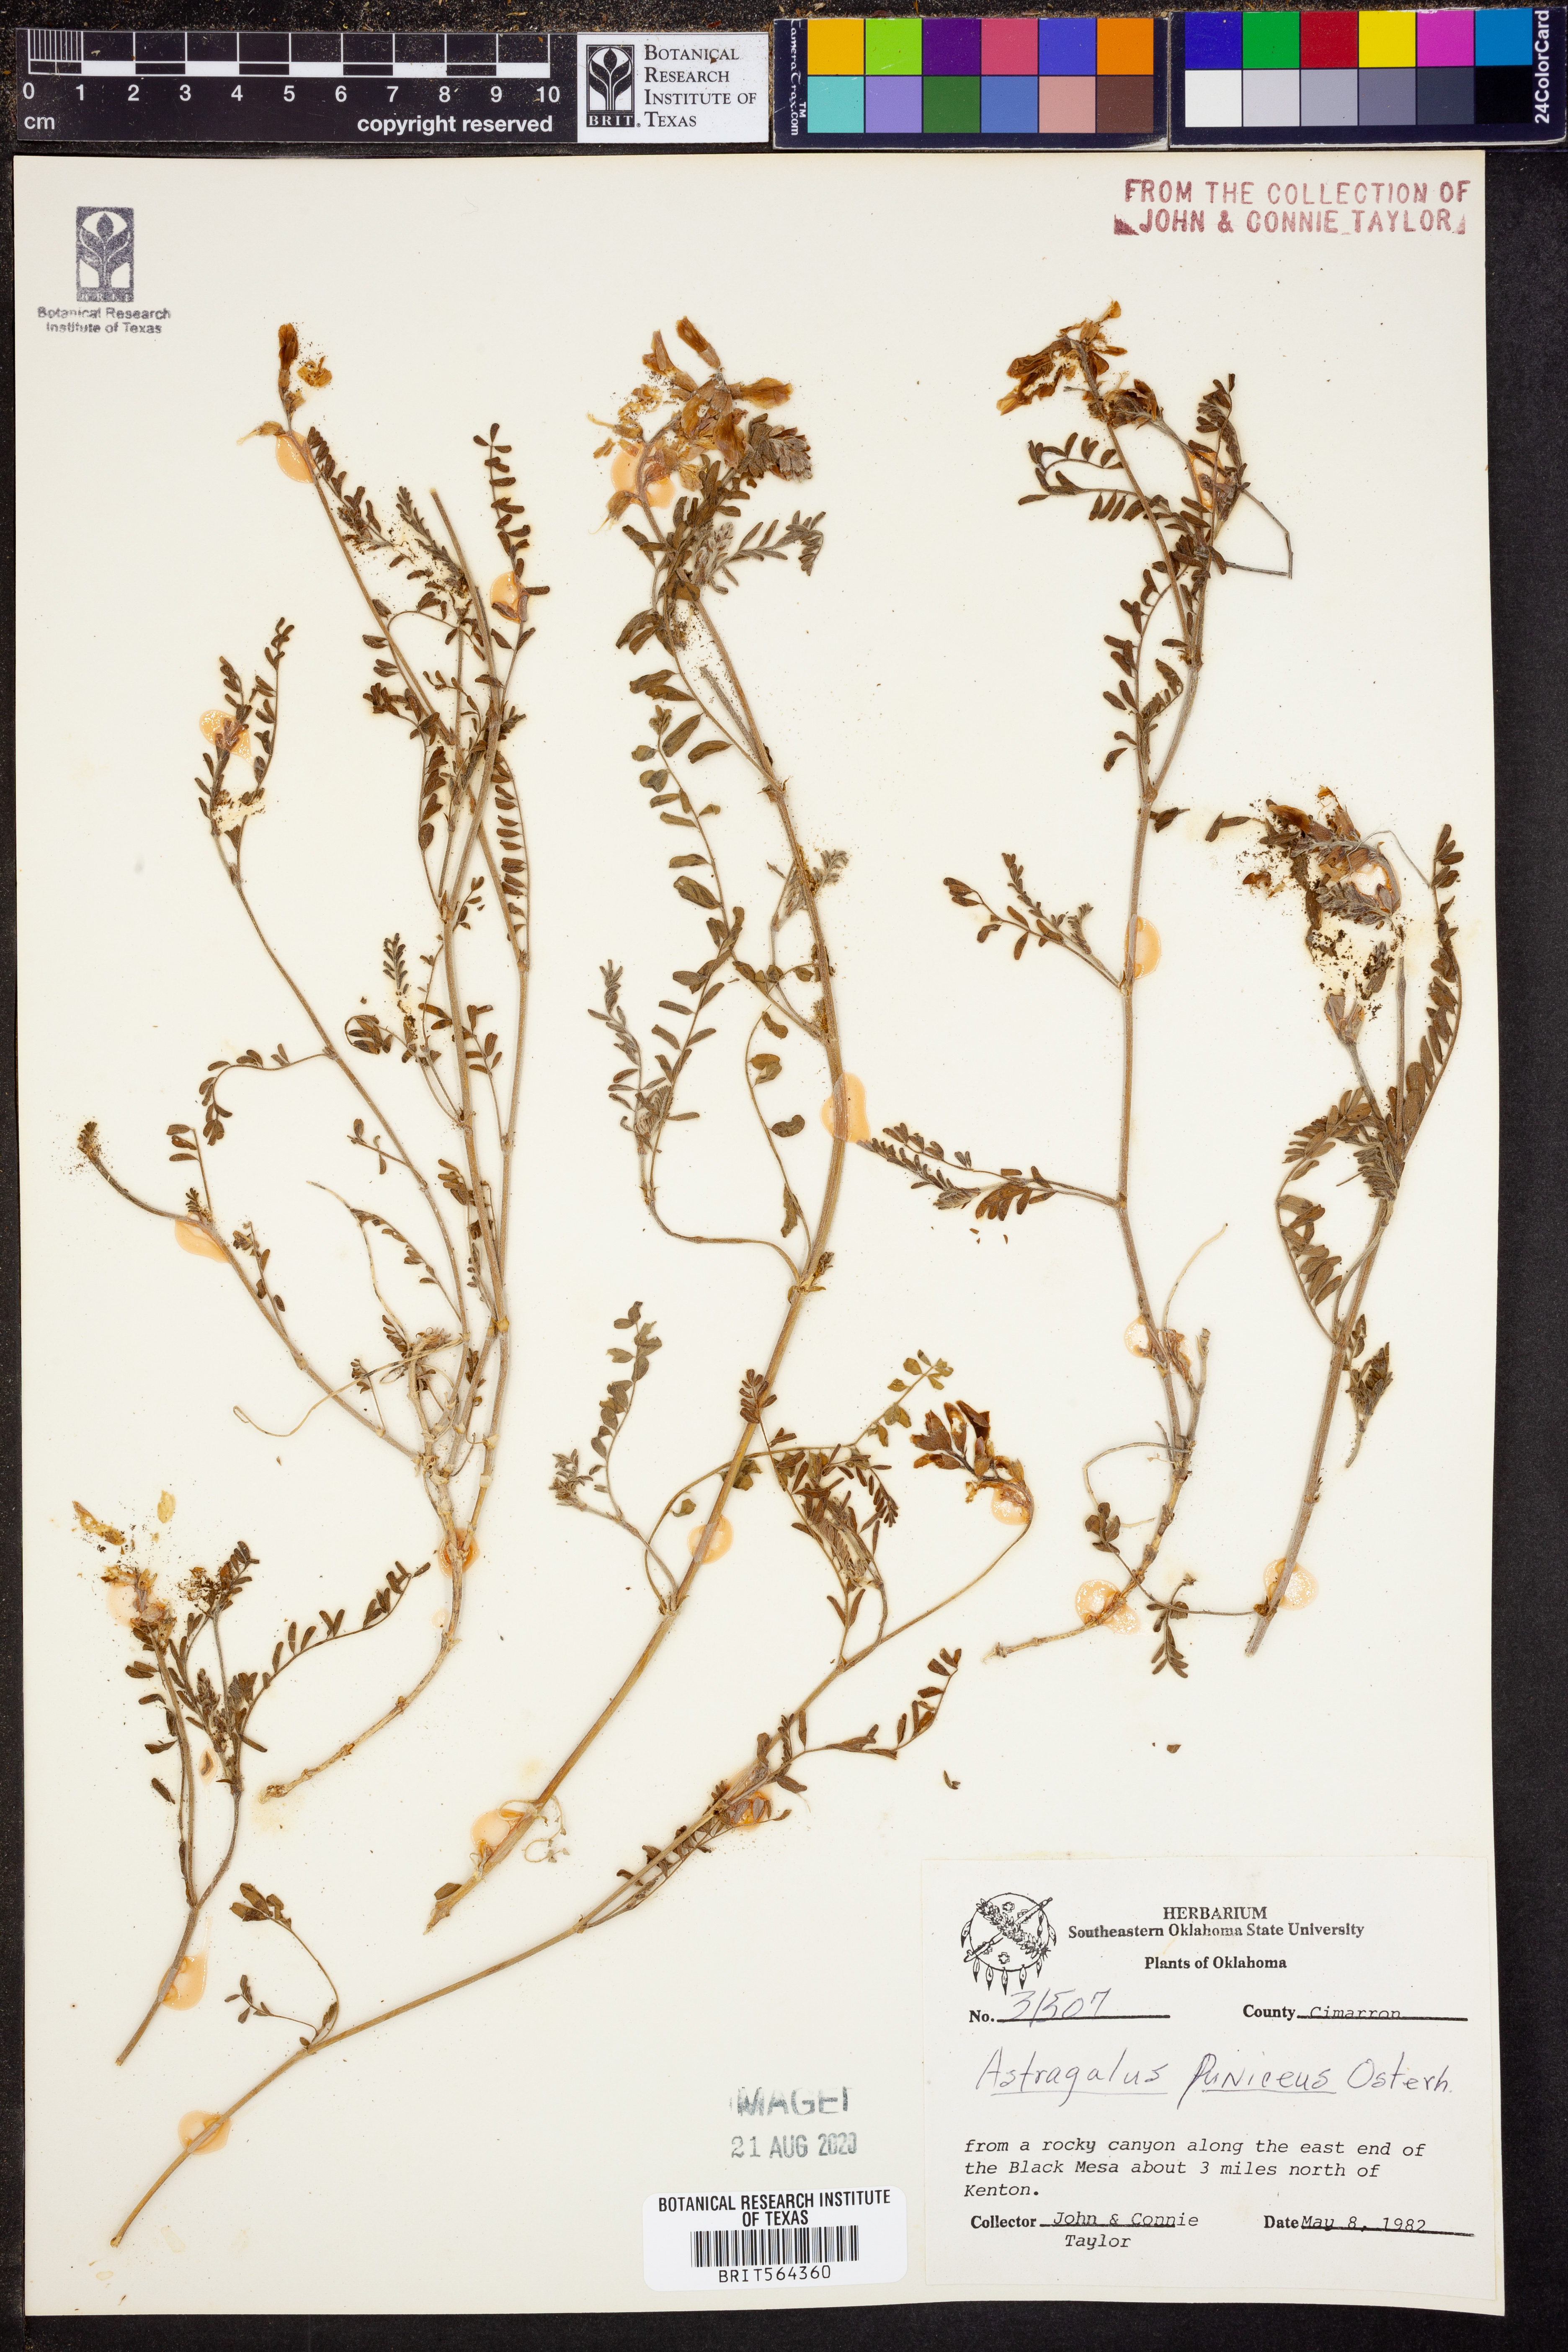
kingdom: Plantae
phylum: Tracheophyta
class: Magnoliopsida
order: Fabales
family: Fabaceae
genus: Astragalus
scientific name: Astragalus puniceus
